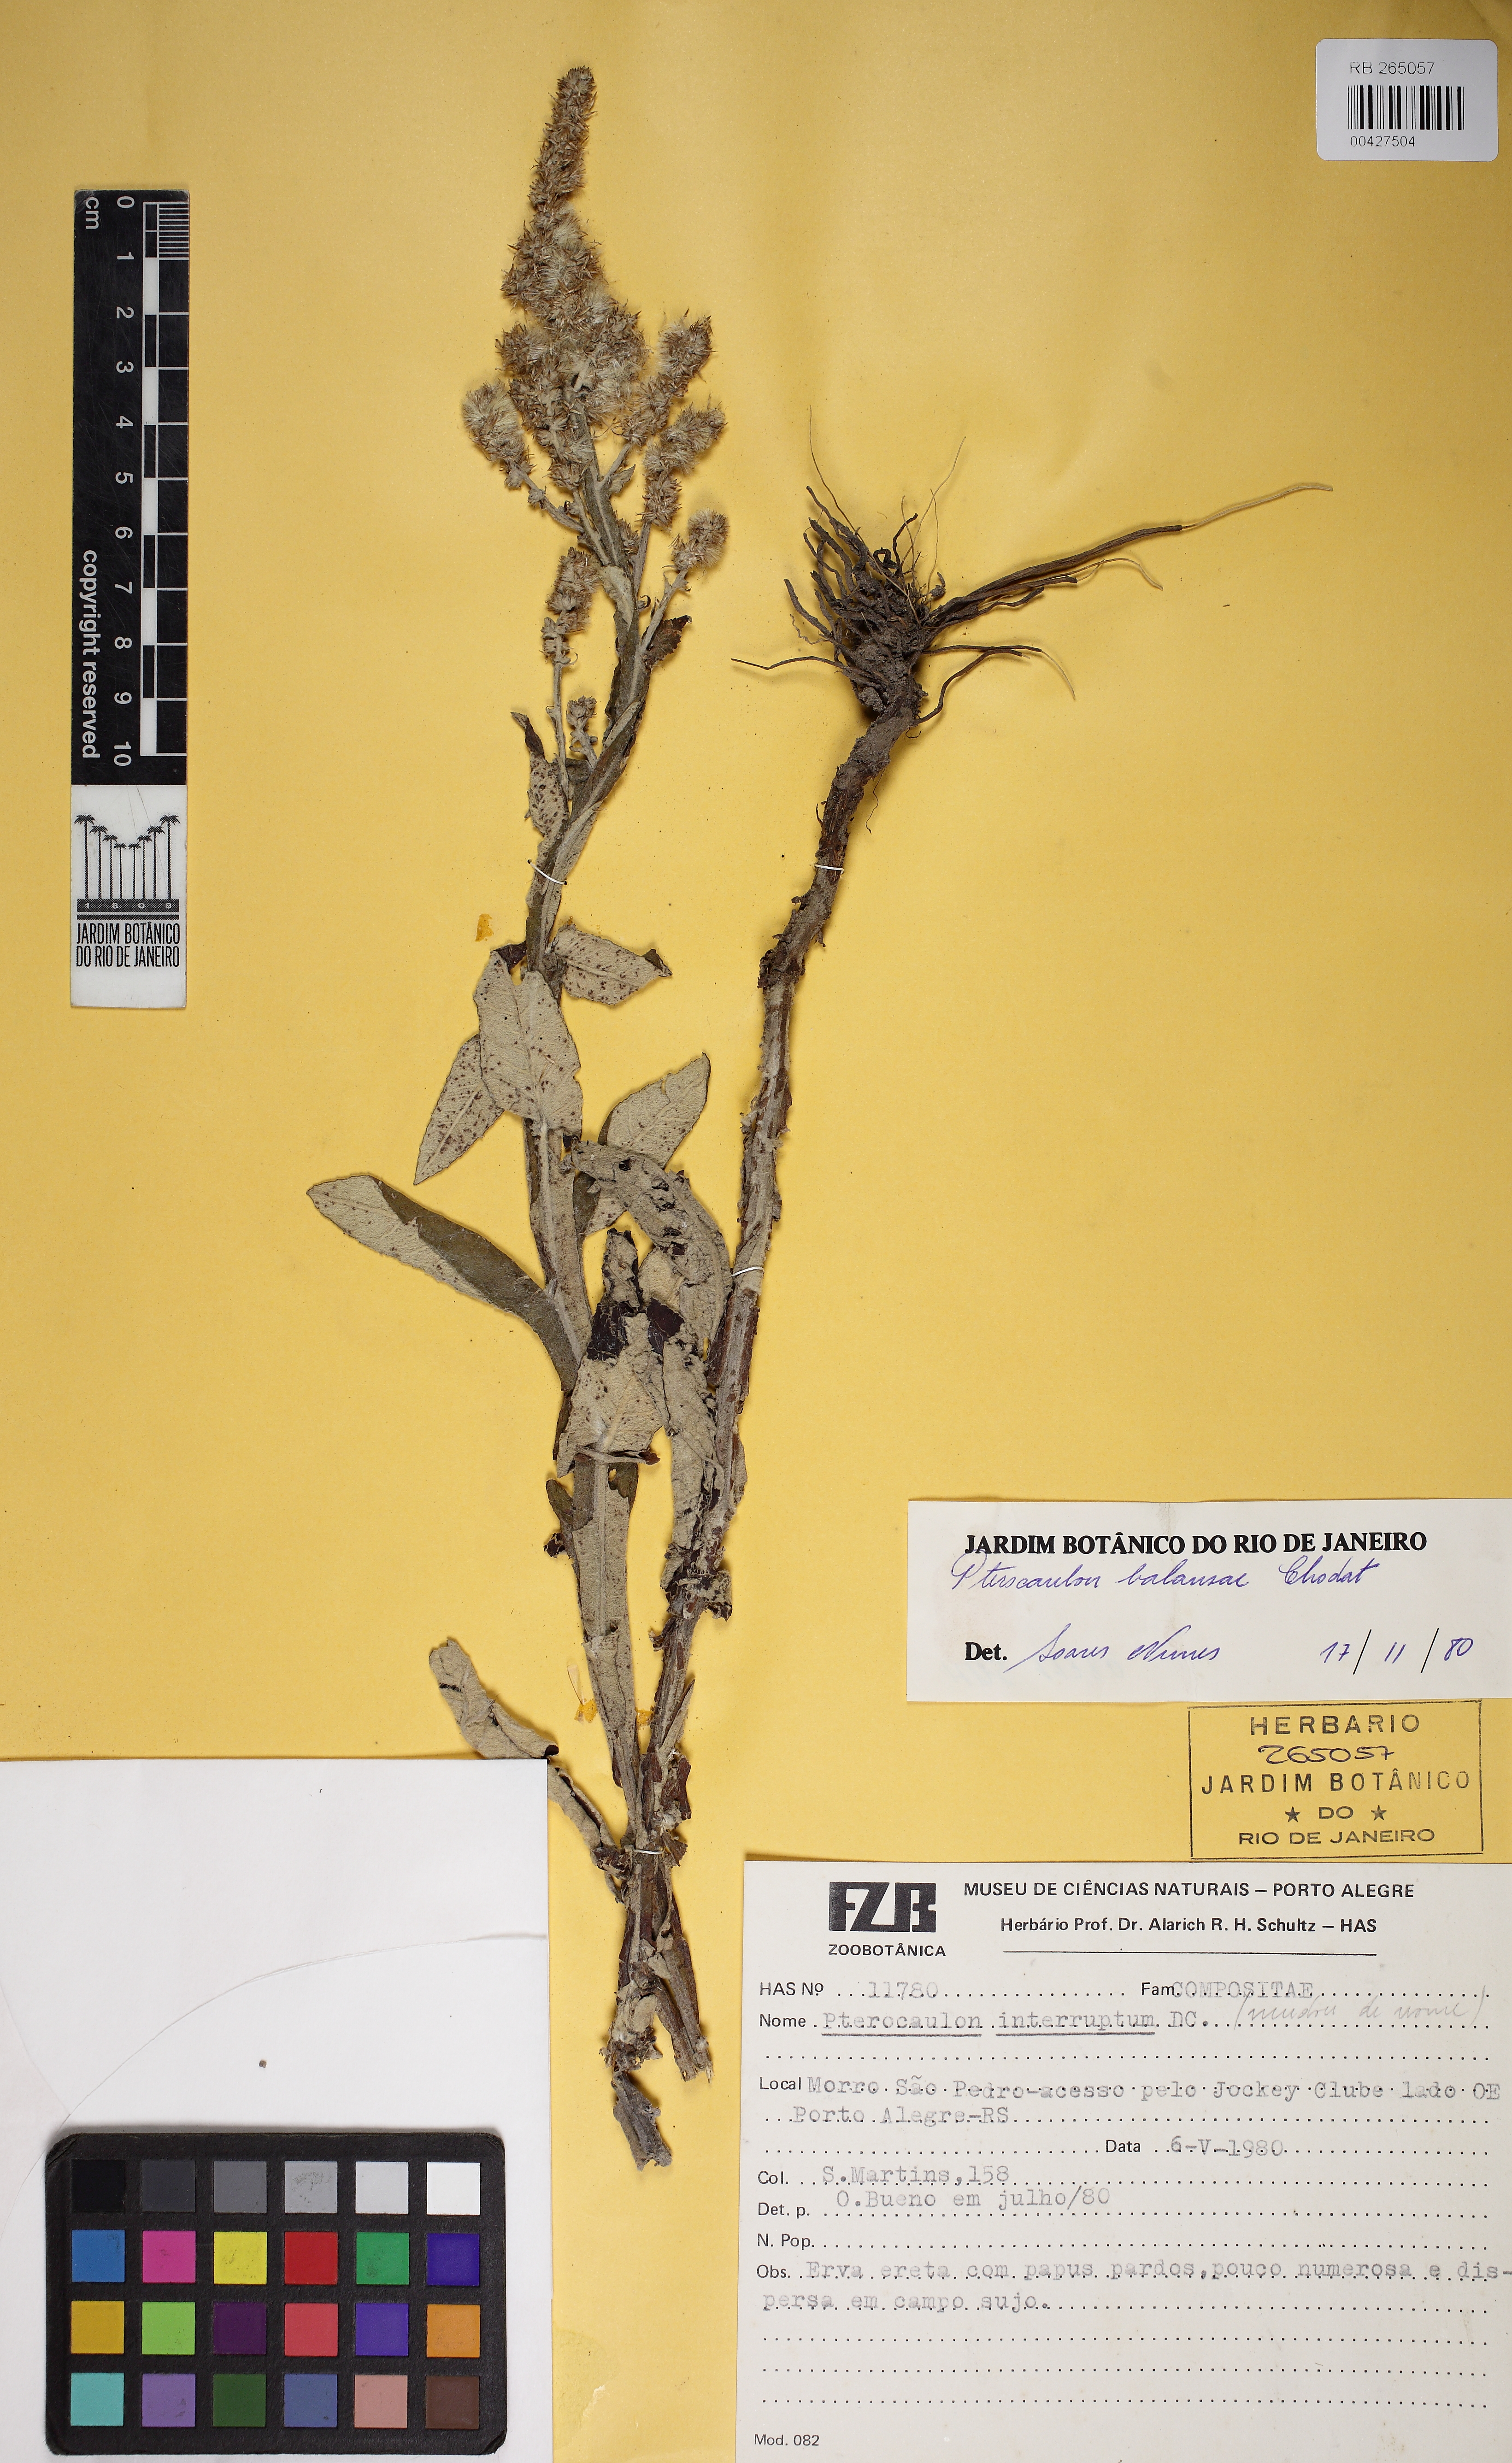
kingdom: Plantae
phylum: Tracheophyta
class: Magnoliopsida
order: Asterales
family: Asteraceae
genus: Pterocaulon
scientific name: Pterocaulon balansae
